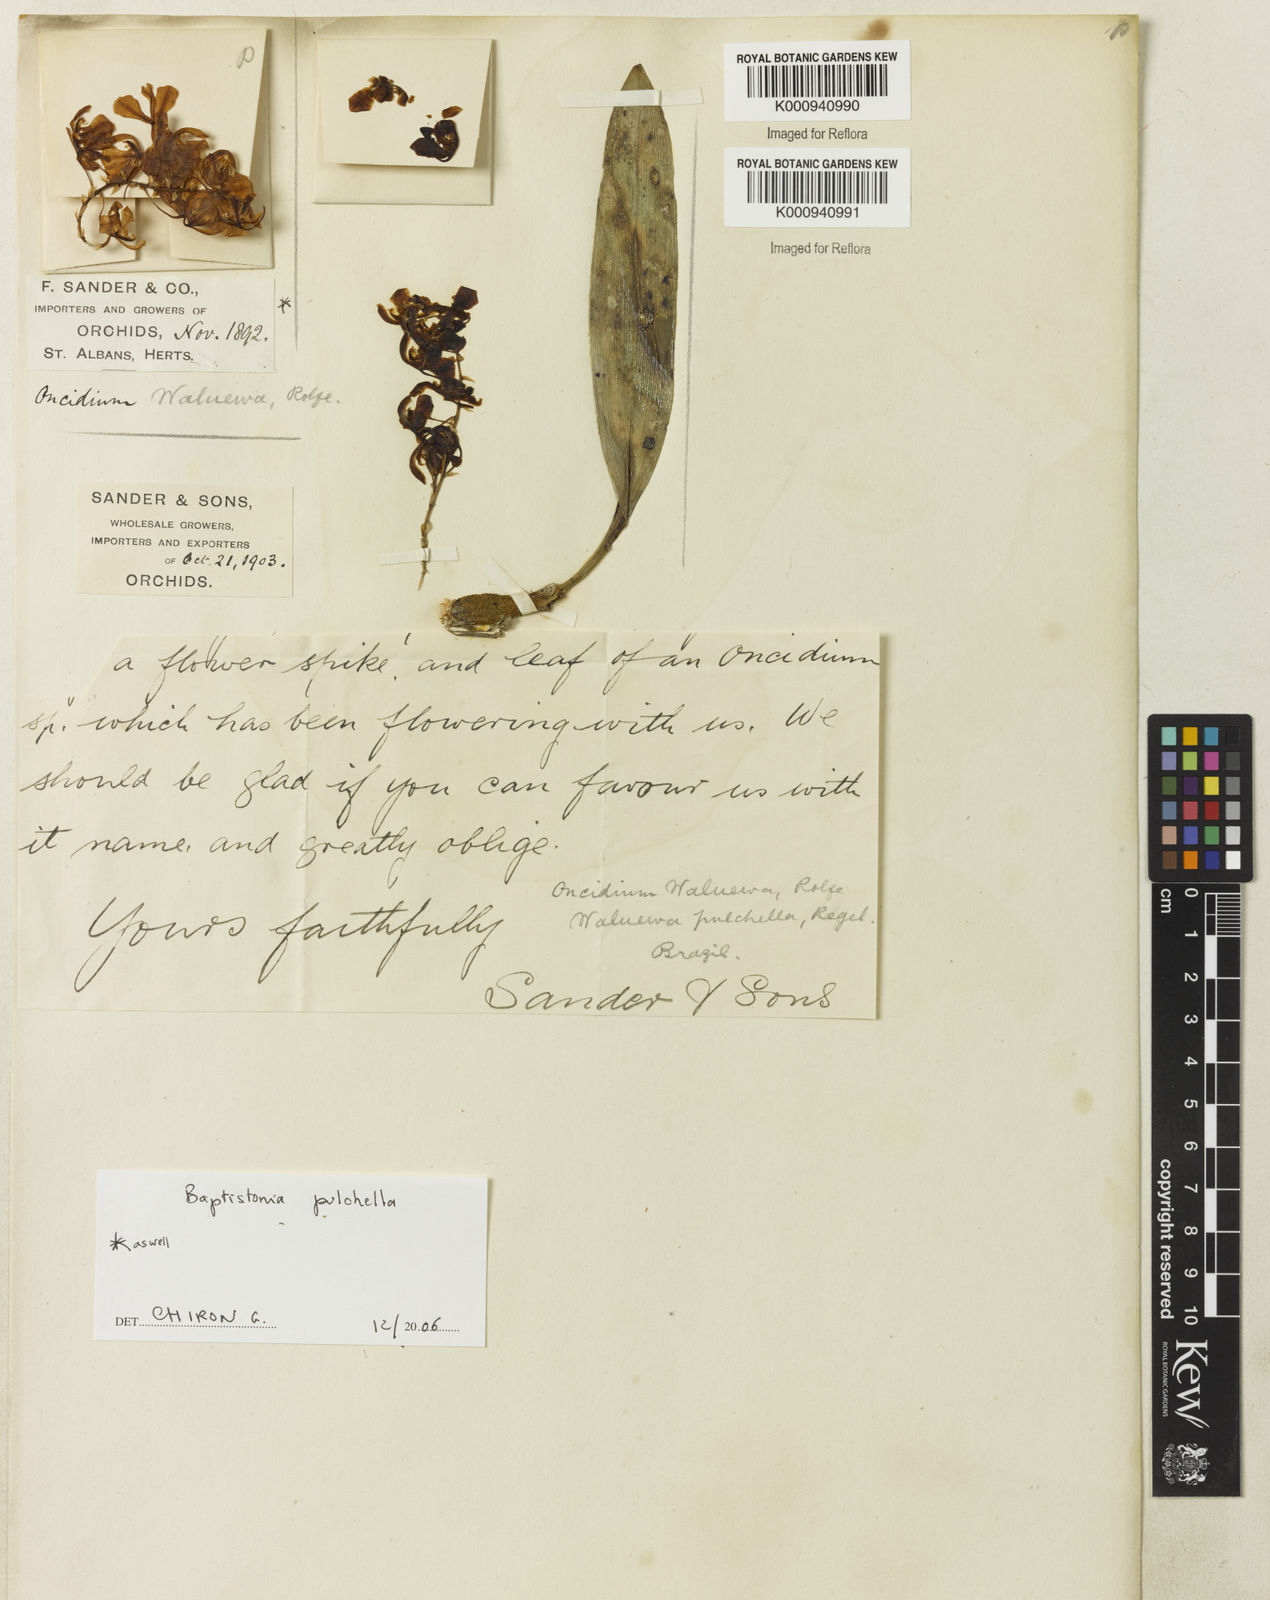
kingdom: Plantae
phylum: Tracheophyta
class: Liliopsida
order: Asparagales
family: Orchidaceae
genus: Gomesa
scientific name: Gomesa pulchella
